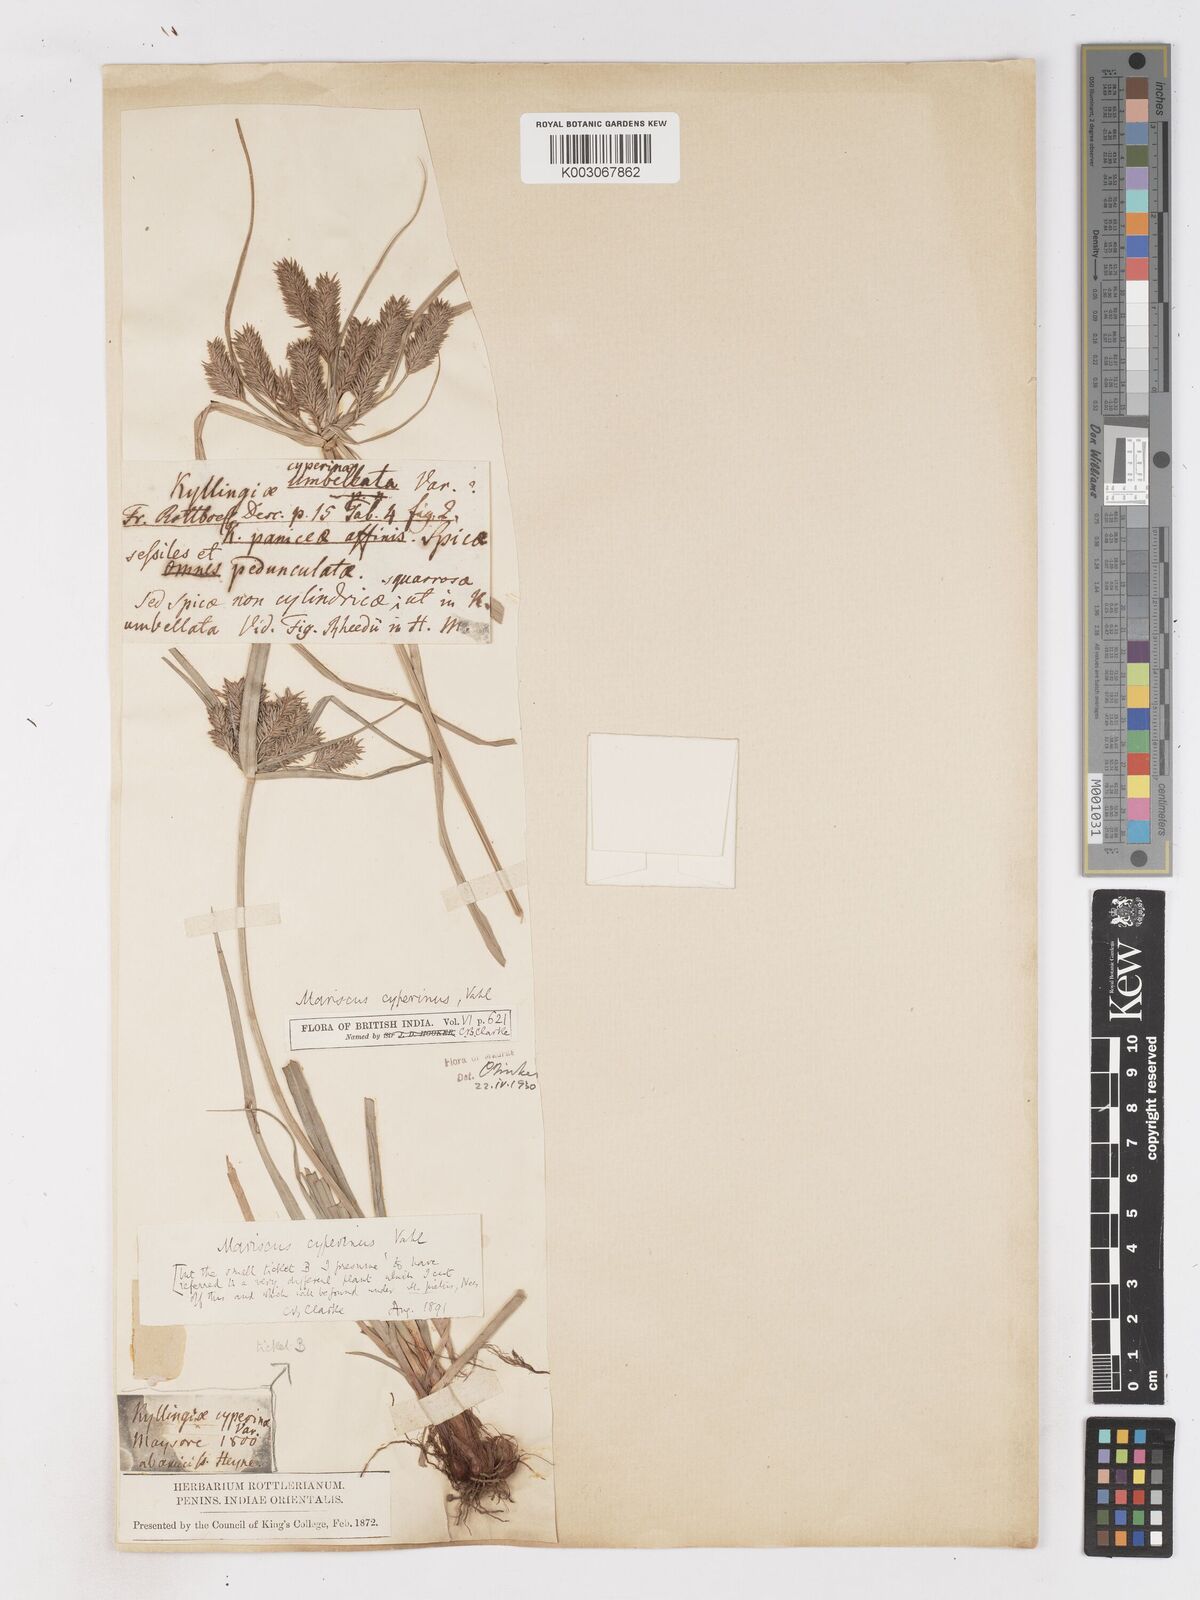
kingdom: Plantae
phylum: Tracheophyta
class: Liliopsida
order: Poales
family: Cyperaceae
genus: Cyperus
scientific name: Cyperus cyperinus
